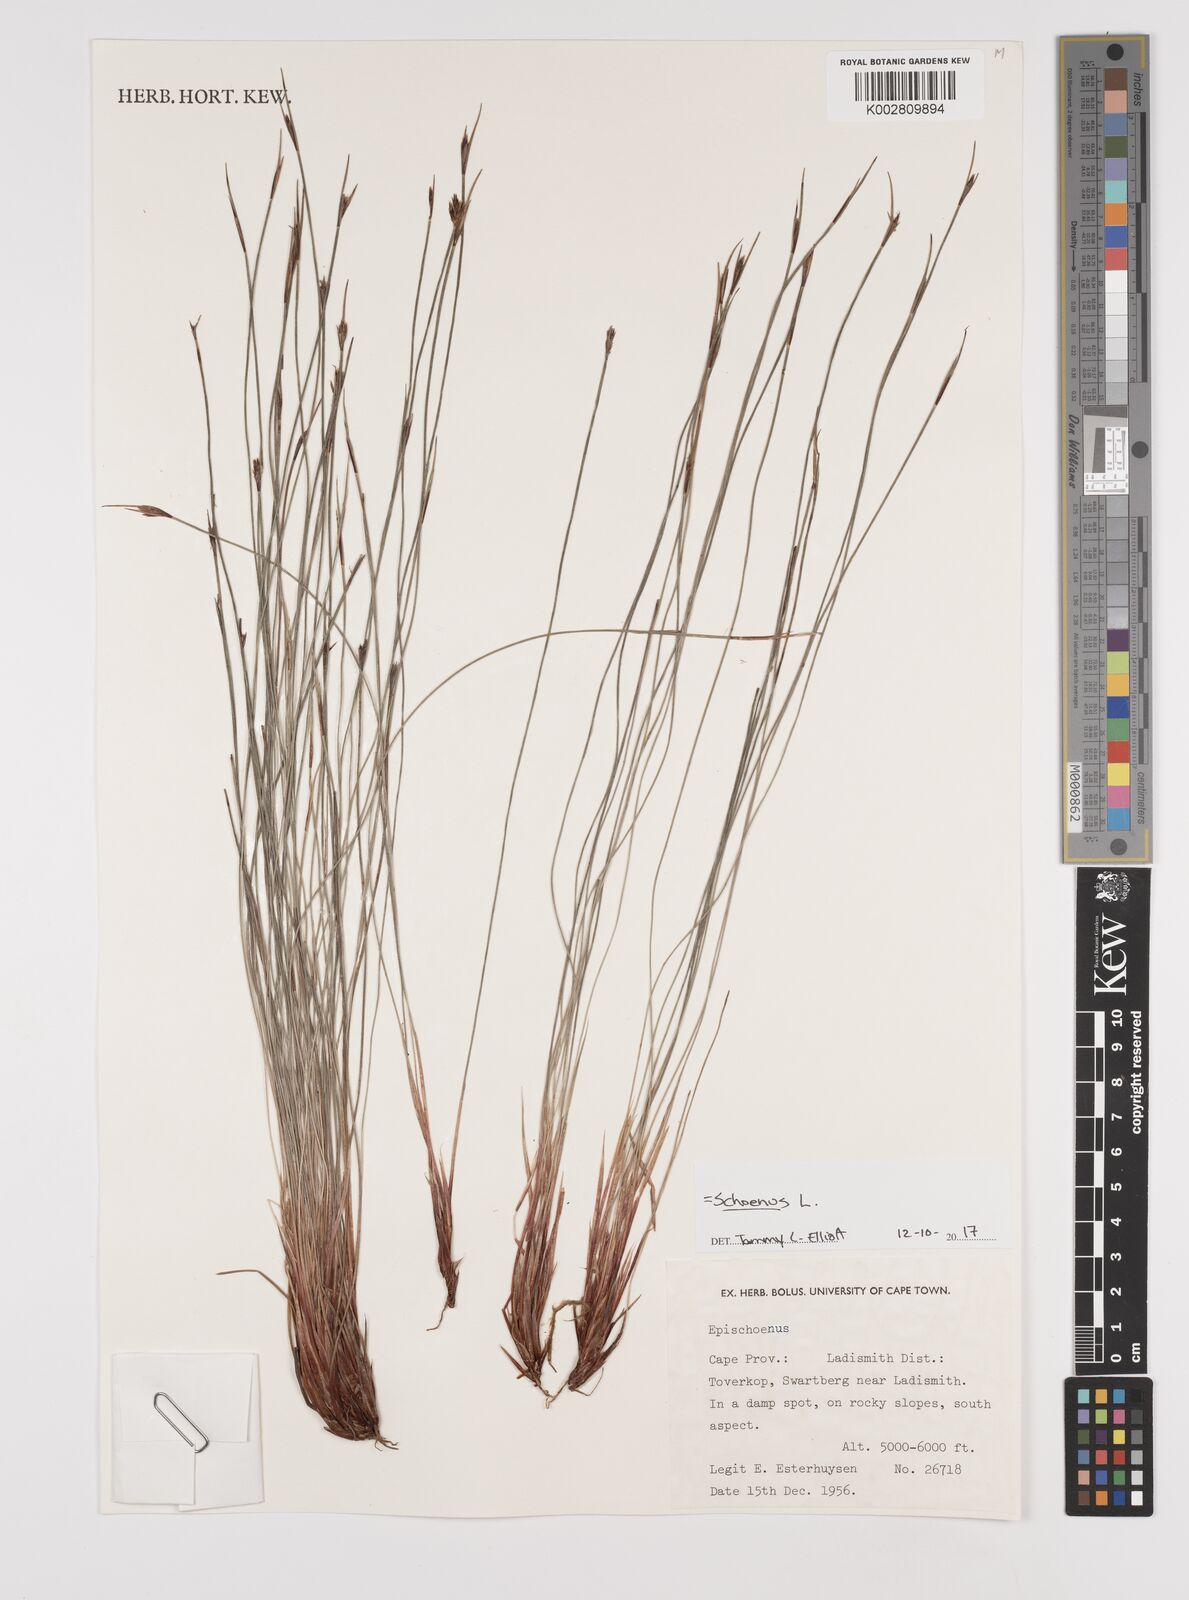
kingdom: Plantae
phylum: Tracheophyta
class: Liliopsida
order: Poales
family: Cyperaceae
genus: Schoenus
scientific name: Schoenus
